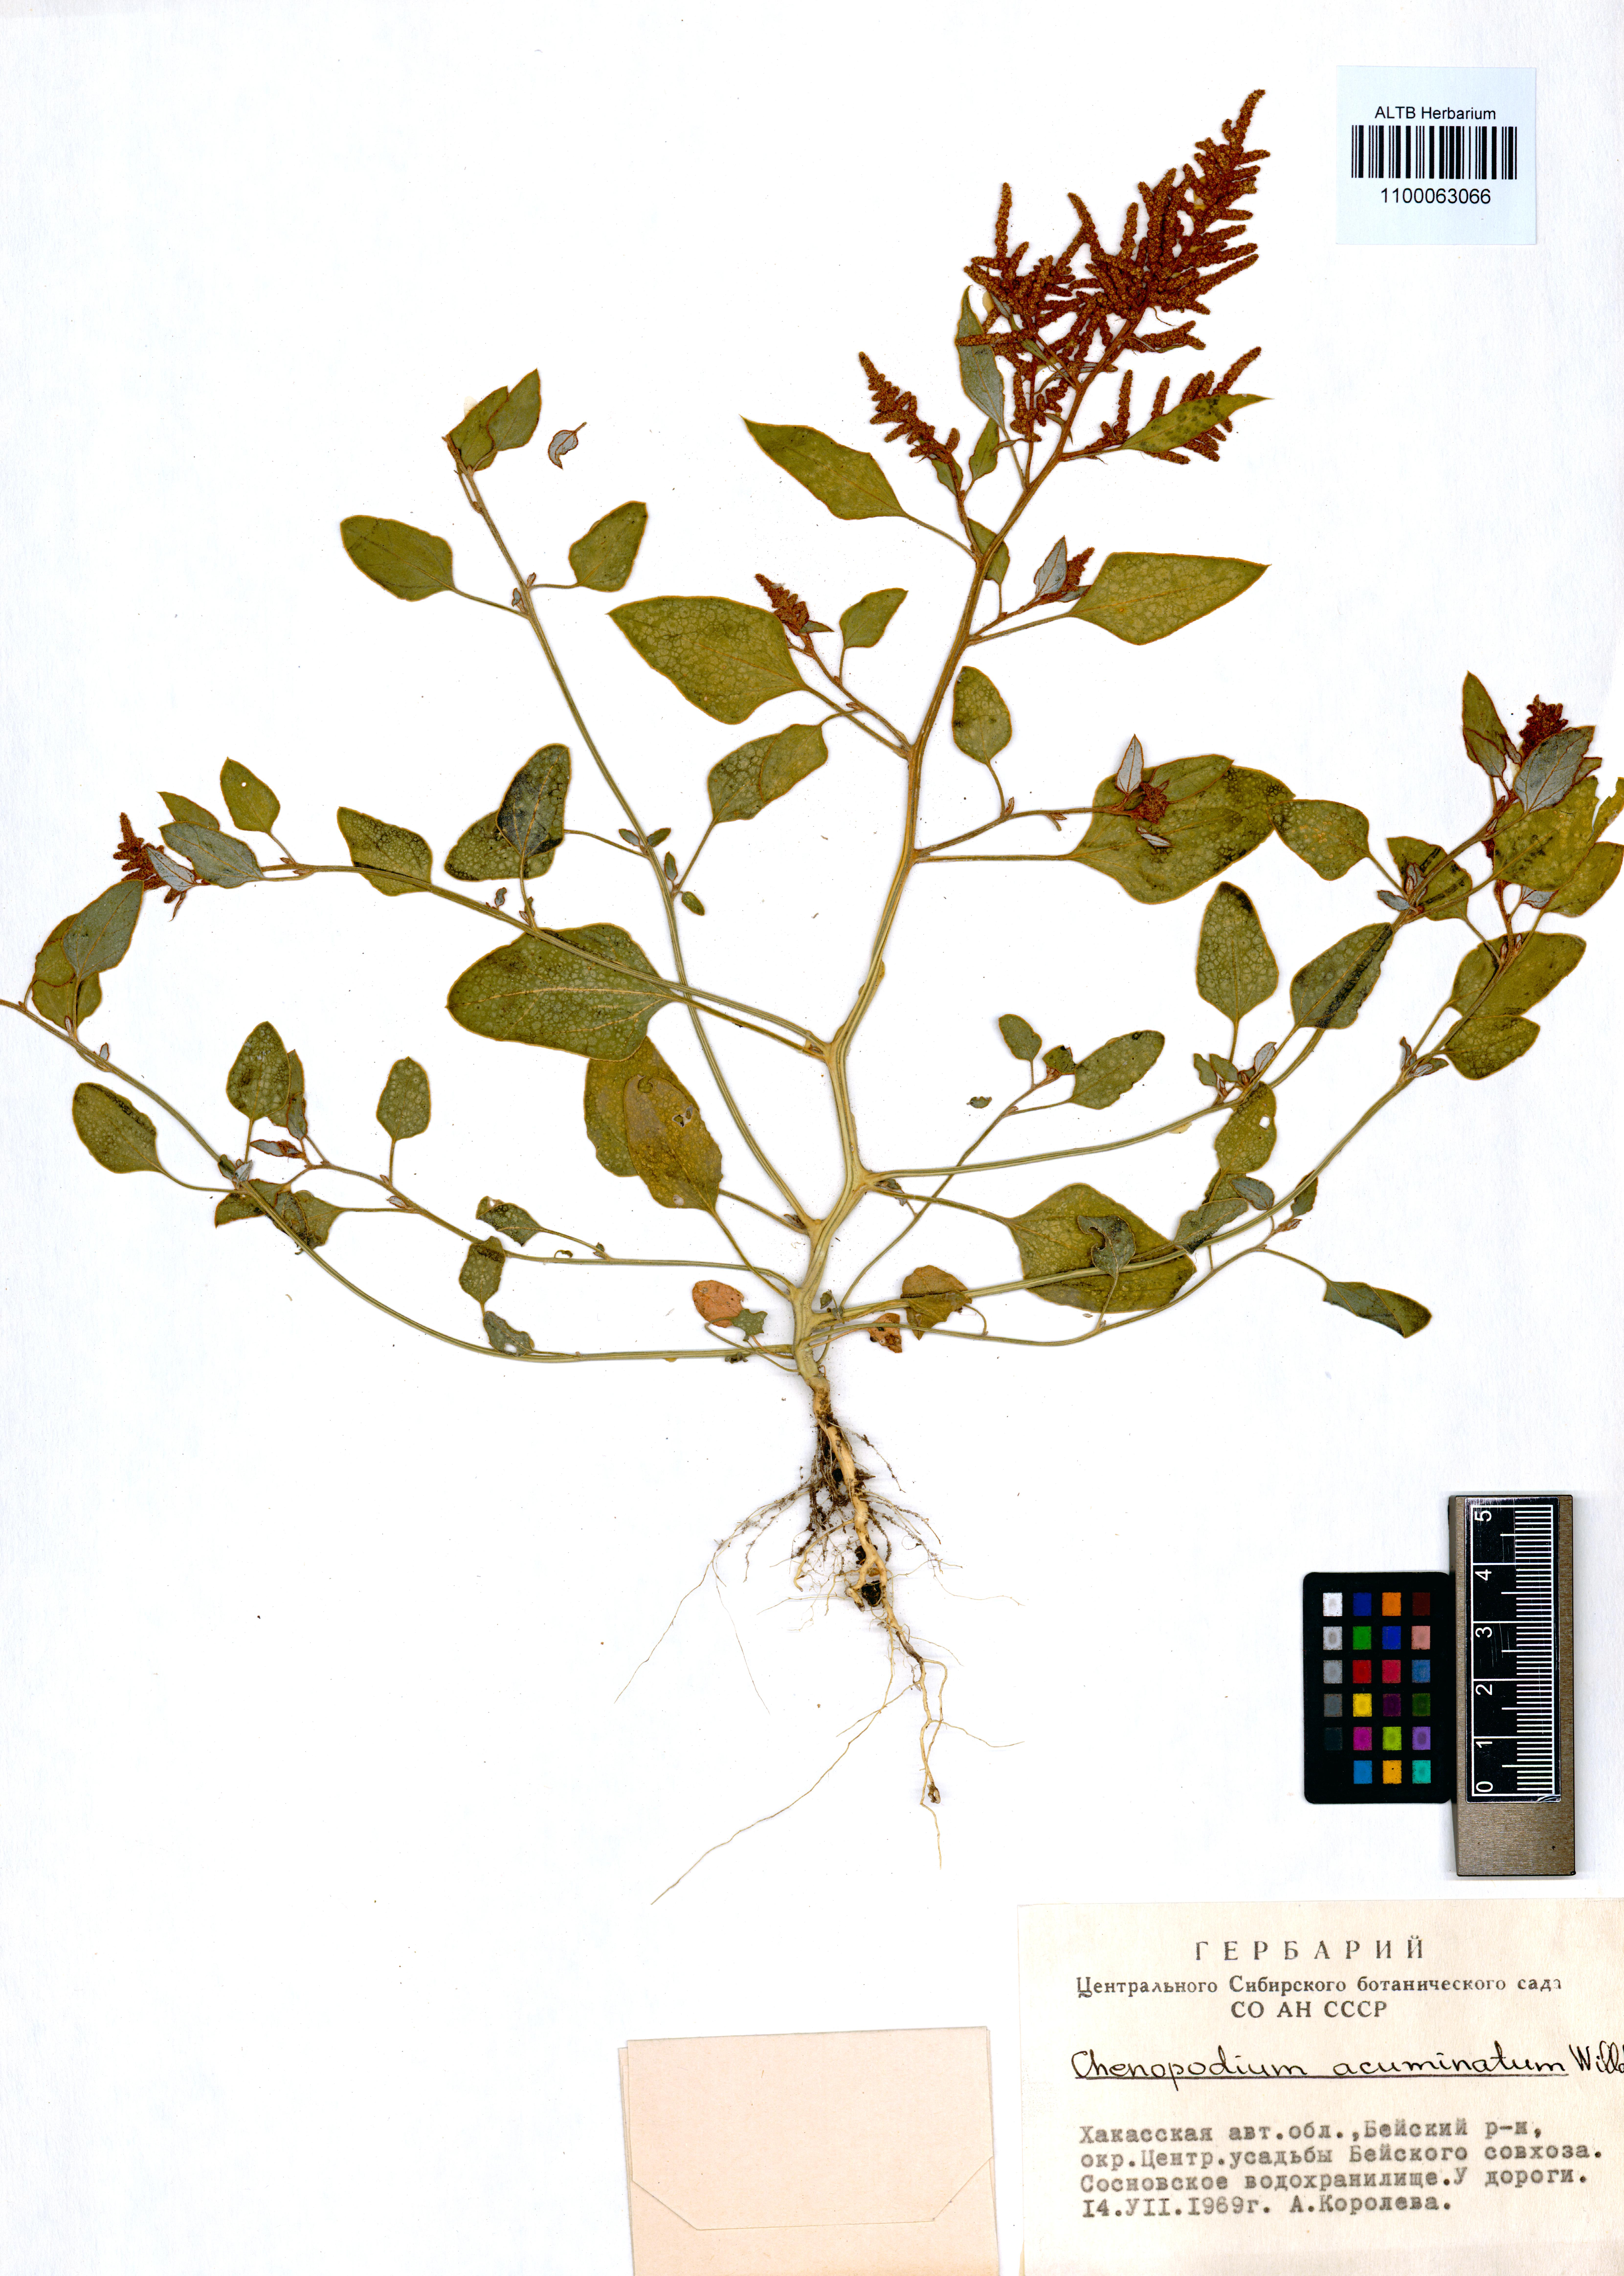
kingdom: Plantae
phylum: Tracheophyta
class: Magnoliopsida
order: Caryophyllales
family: Amaranthaceae
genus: Chenopodium
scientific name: Chenopodium acuminatum
